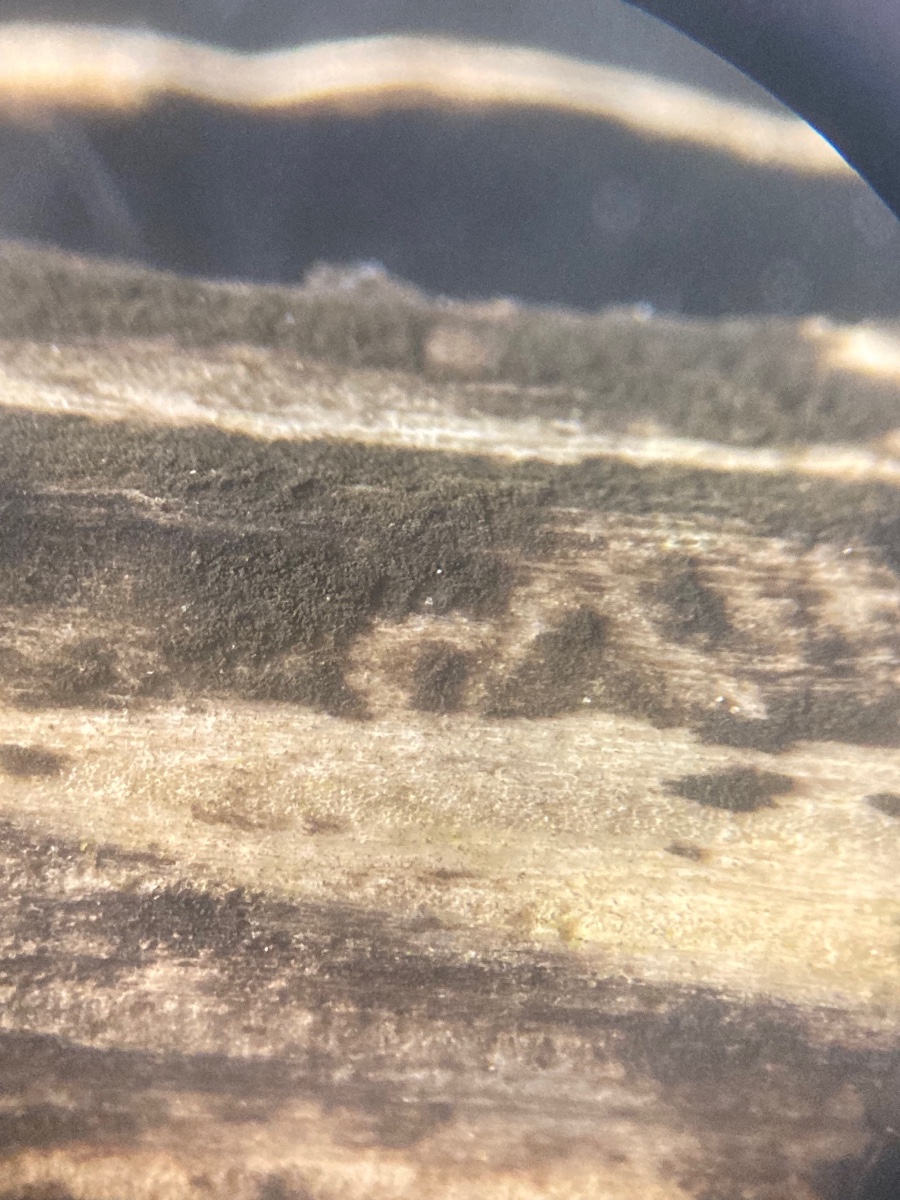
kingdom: Fungi
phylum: Ascomycota
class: Dothideomycetes
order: Pleosporales
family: Torulaceae
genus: Torula
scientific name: Torula herbarum
